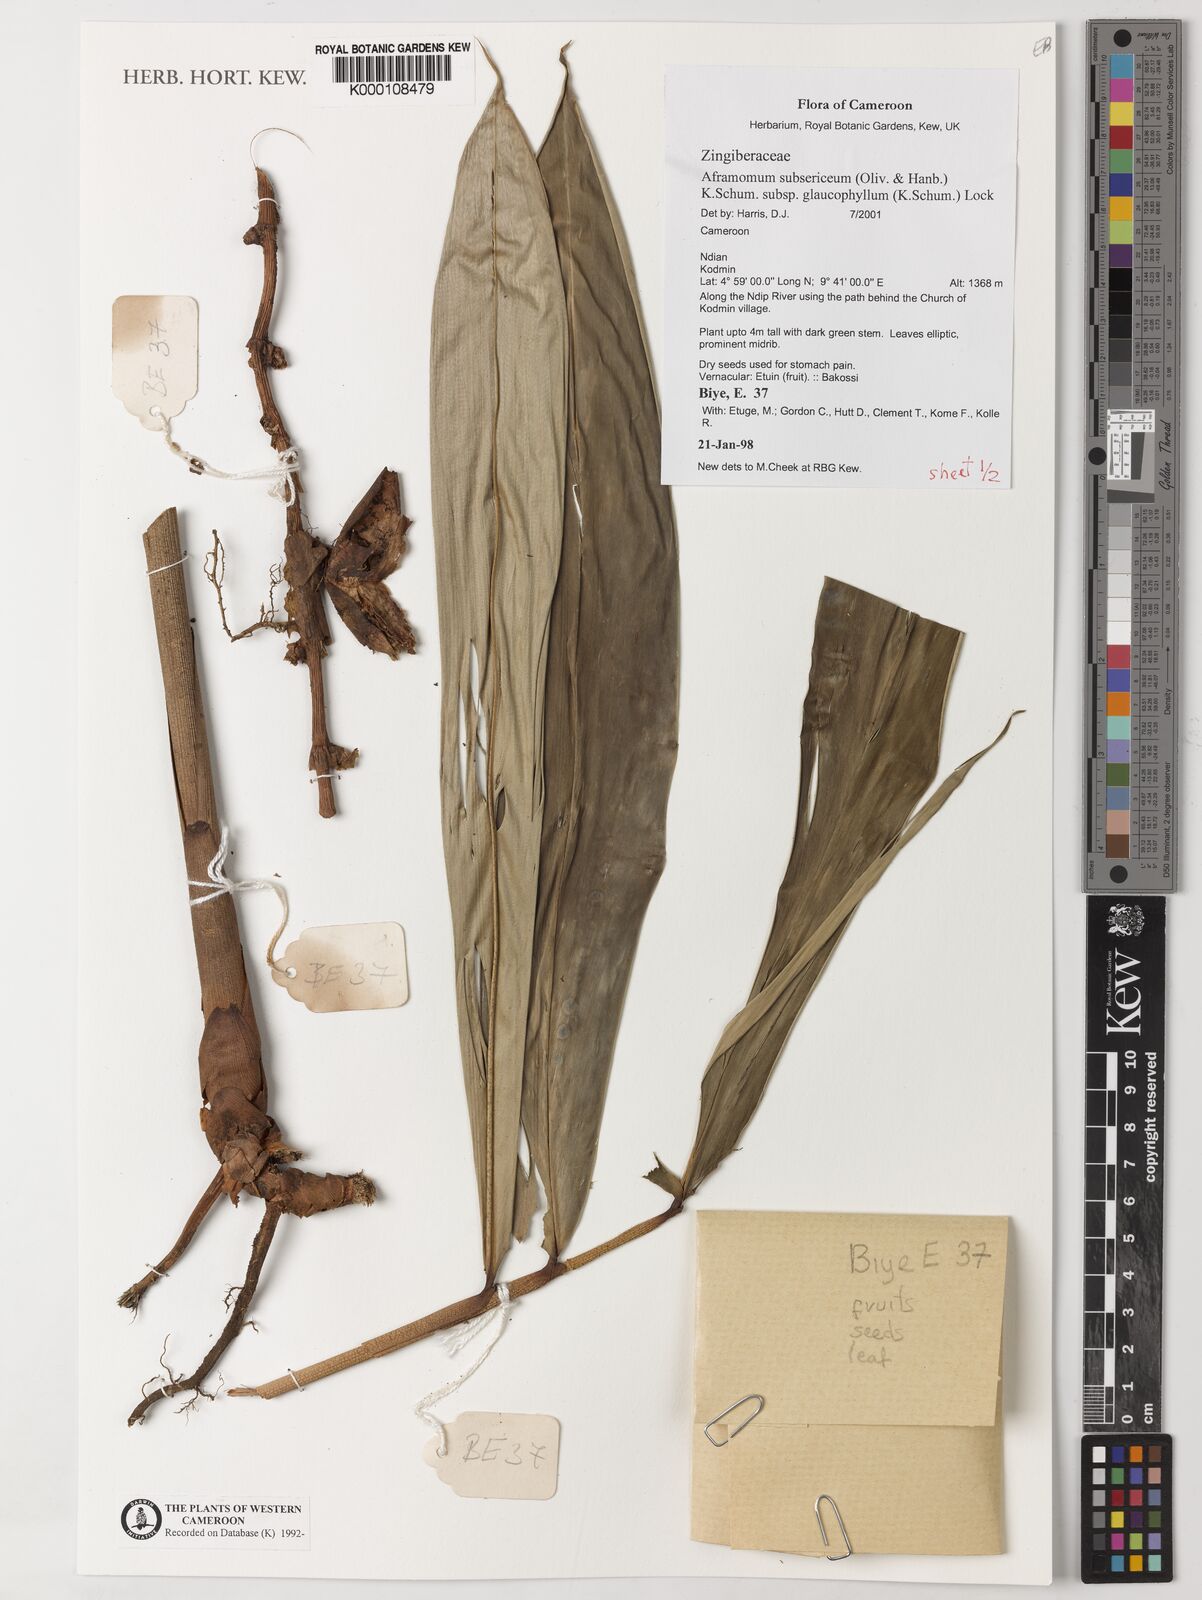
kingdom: Plantae
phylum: Tracheophyta
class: Liliopsida
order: Zingiberales
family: Zingiberaceae
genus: Aframomum
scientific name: Aframomum glaucophyllum
